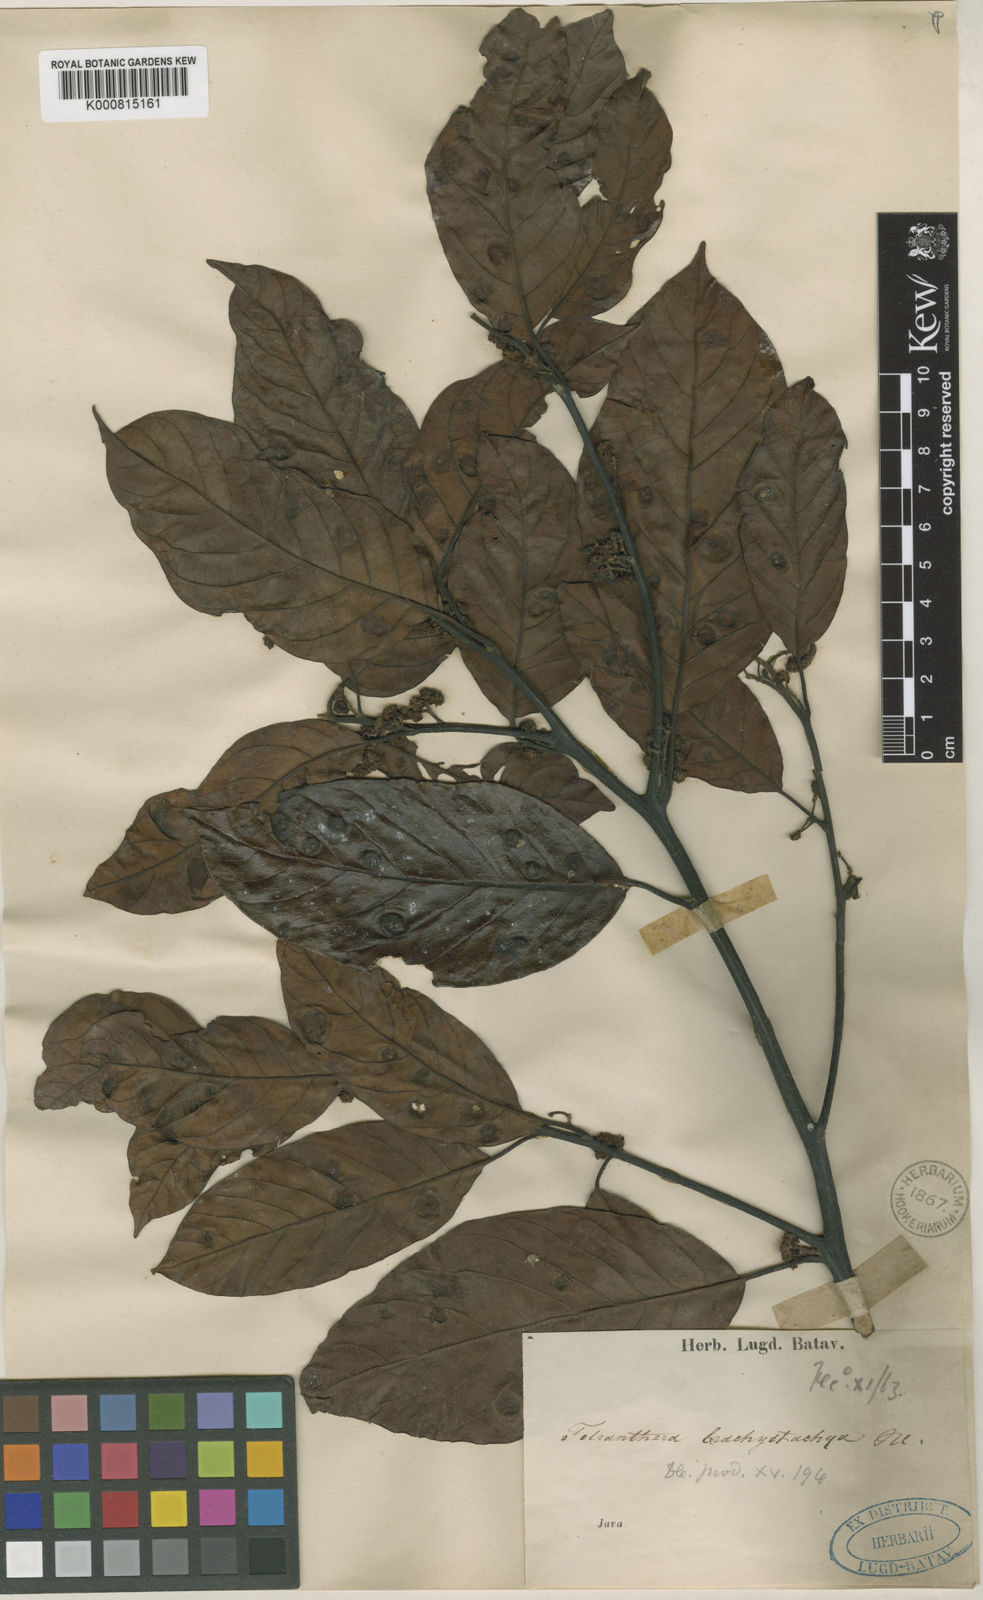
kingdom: Plantae
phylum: Tracheophyta
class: Magnoliopsida
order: Laurales
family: Lauraceae
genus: Litsea
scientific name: Litsea
